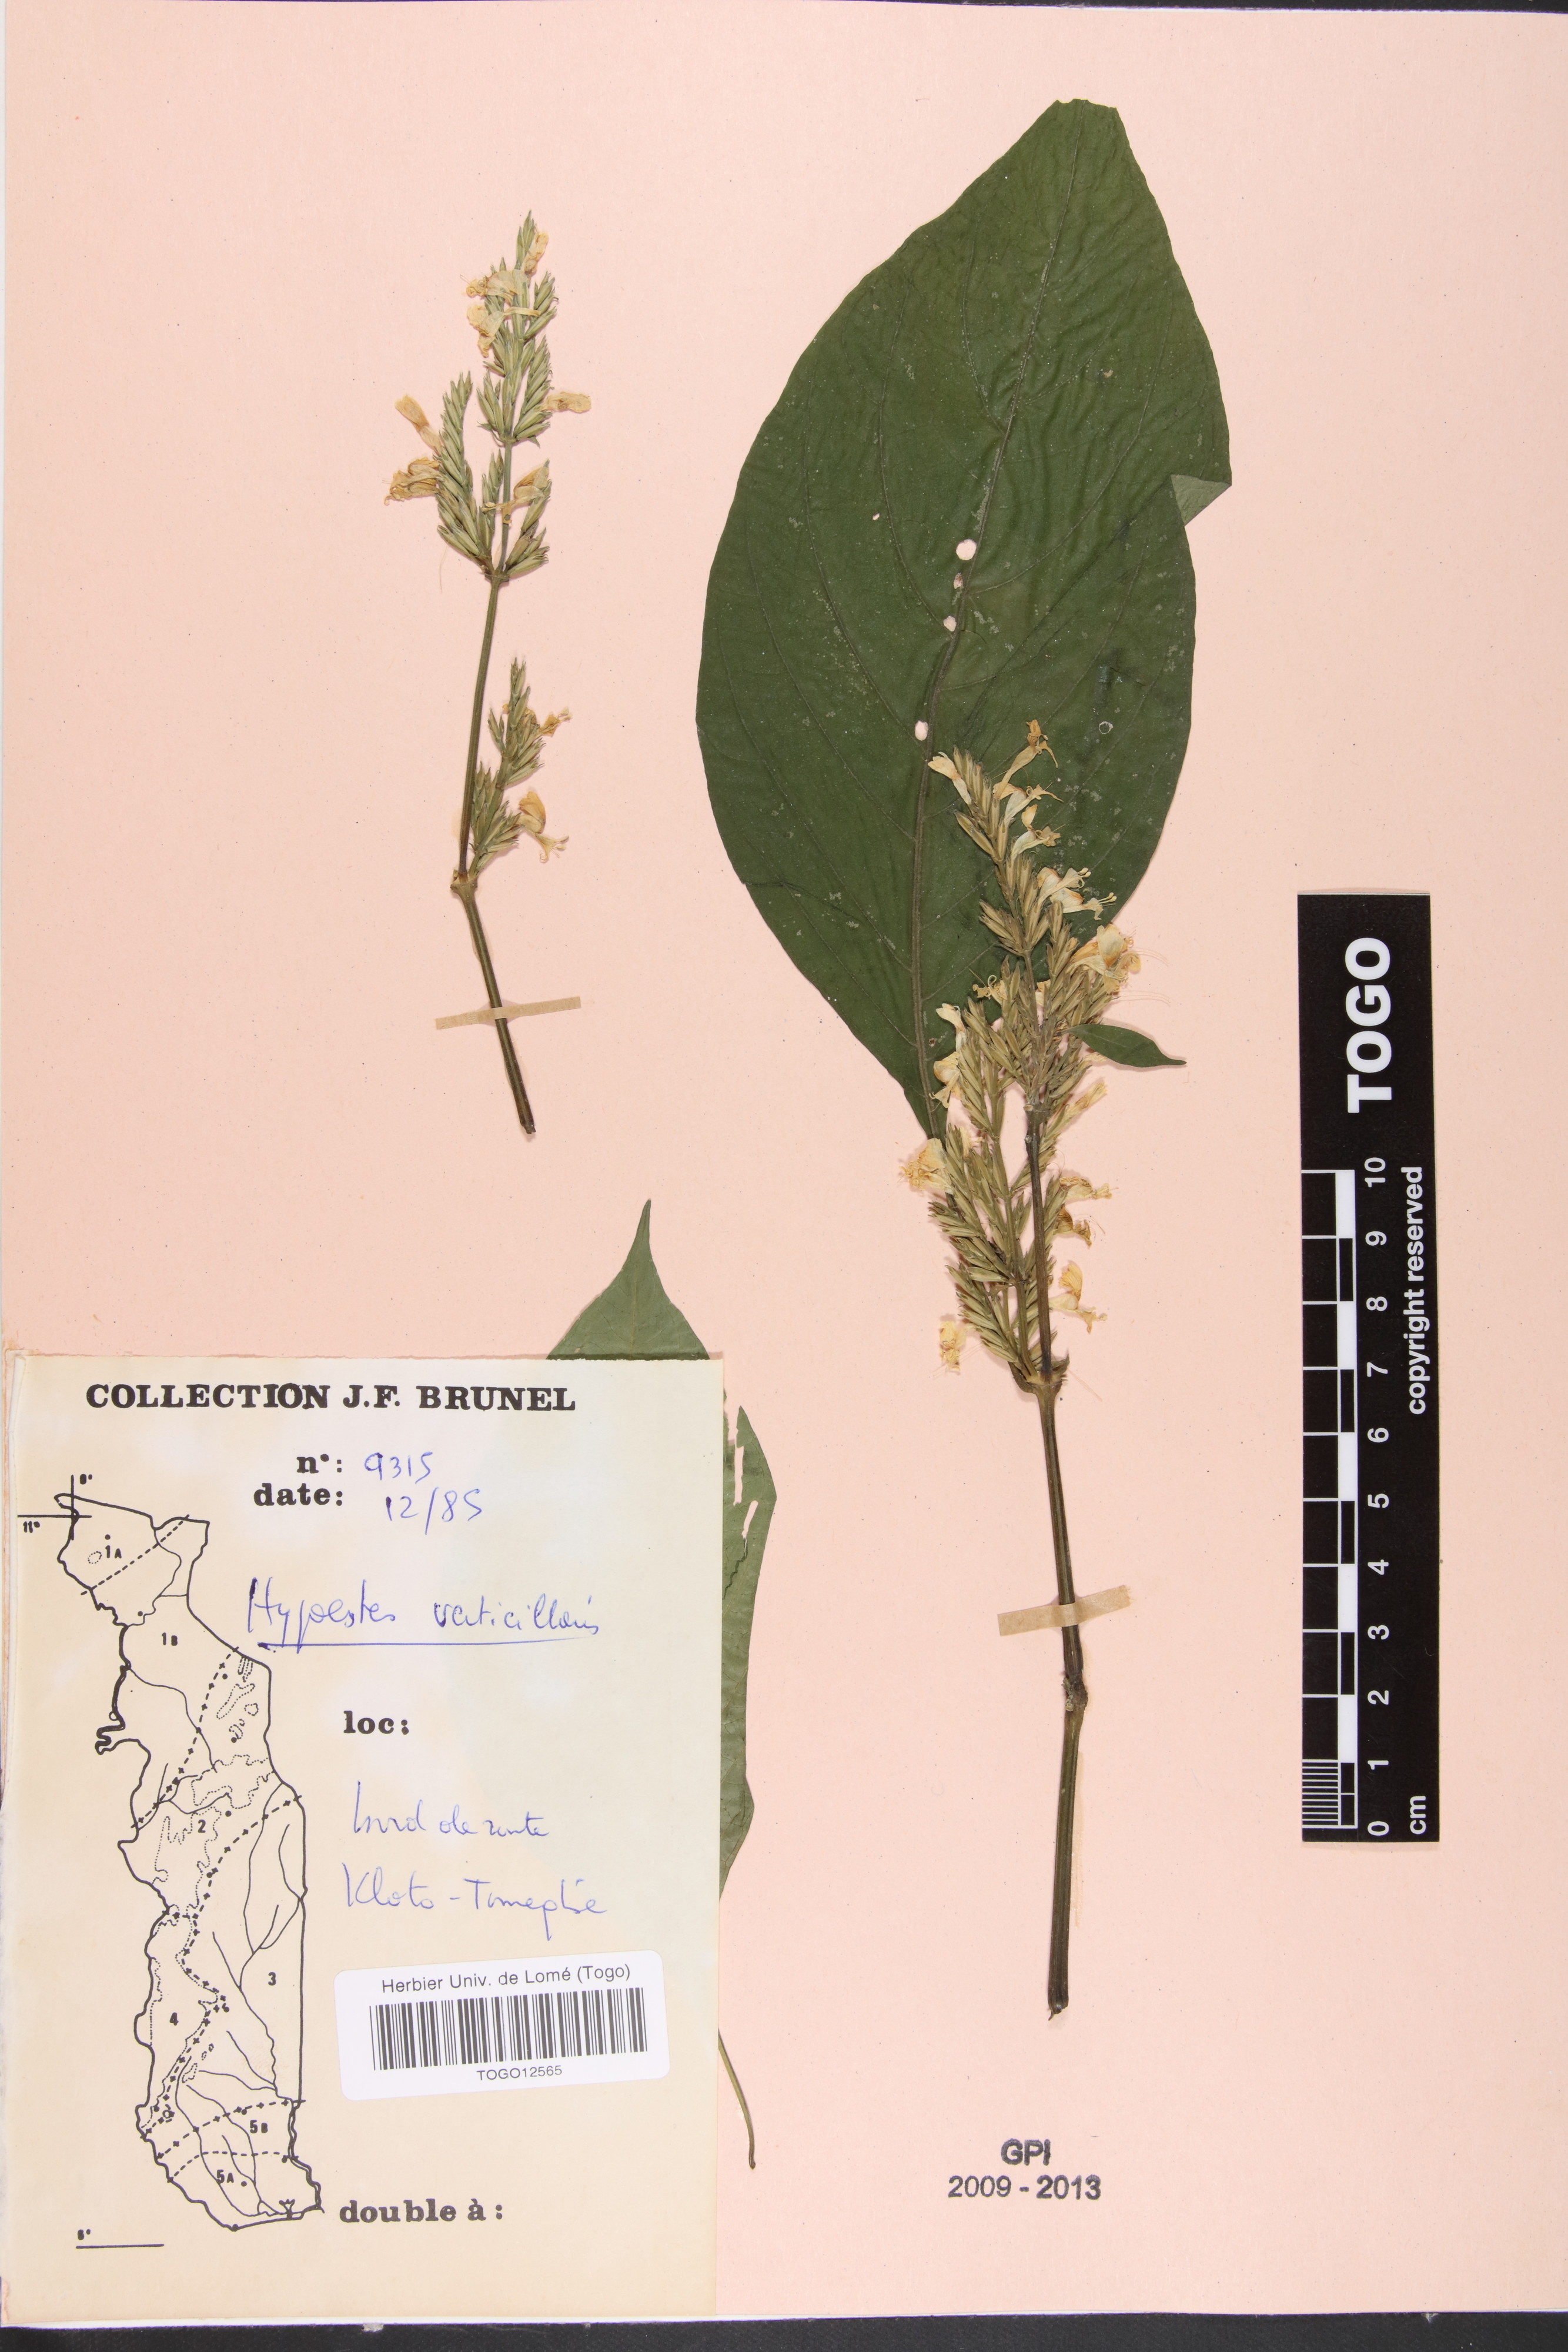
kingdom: Plantae
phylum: Tracheophyta
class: Magnoliopsida
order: Lamiales
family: Acanthaceae
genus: Hypoestes
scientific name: Hypoestes aristata
